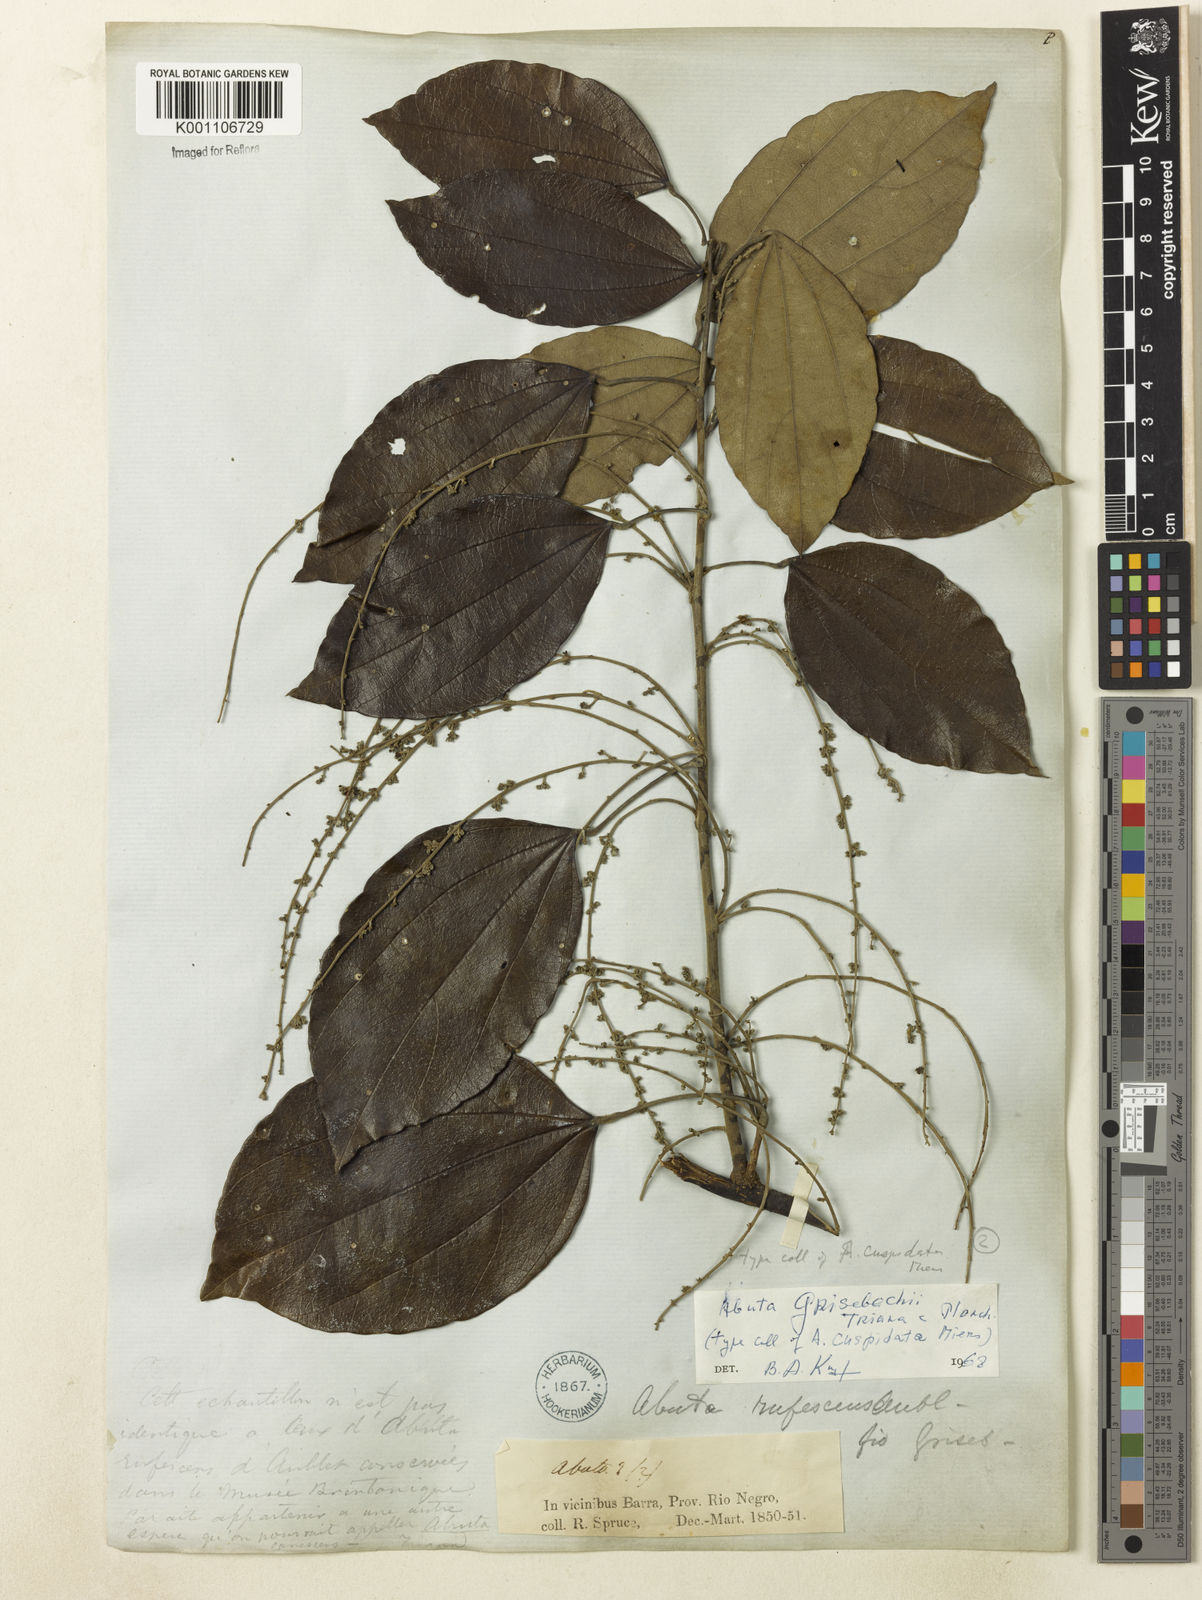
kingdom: Plantae
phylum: Tracheophyta
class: Magnoliopsida
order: Ranunculales
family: Menispermaceae
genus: Abuta
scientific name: Abuta grisebachii
